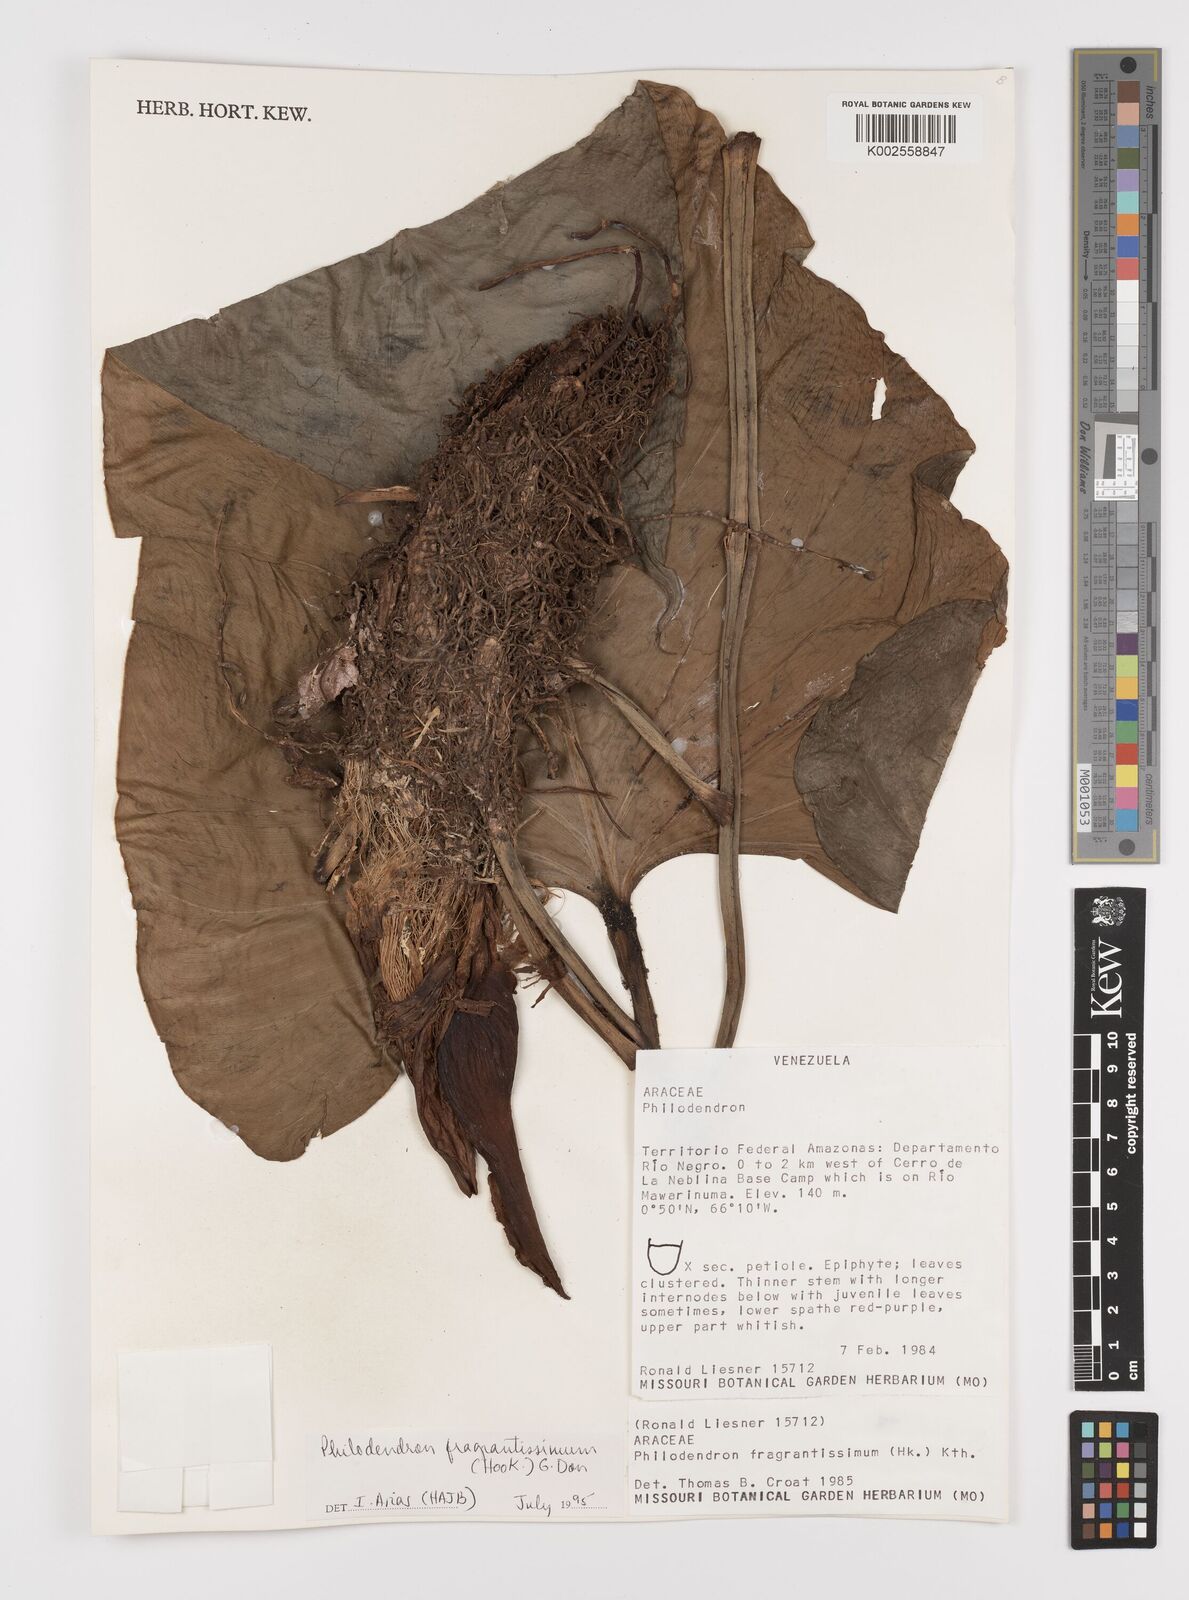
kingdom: Plantae
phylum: Tracheophyta
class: Liliopsida
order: Alismatales
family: Araceae
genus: Philodendron
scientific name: Philodendron fragrantissimum
